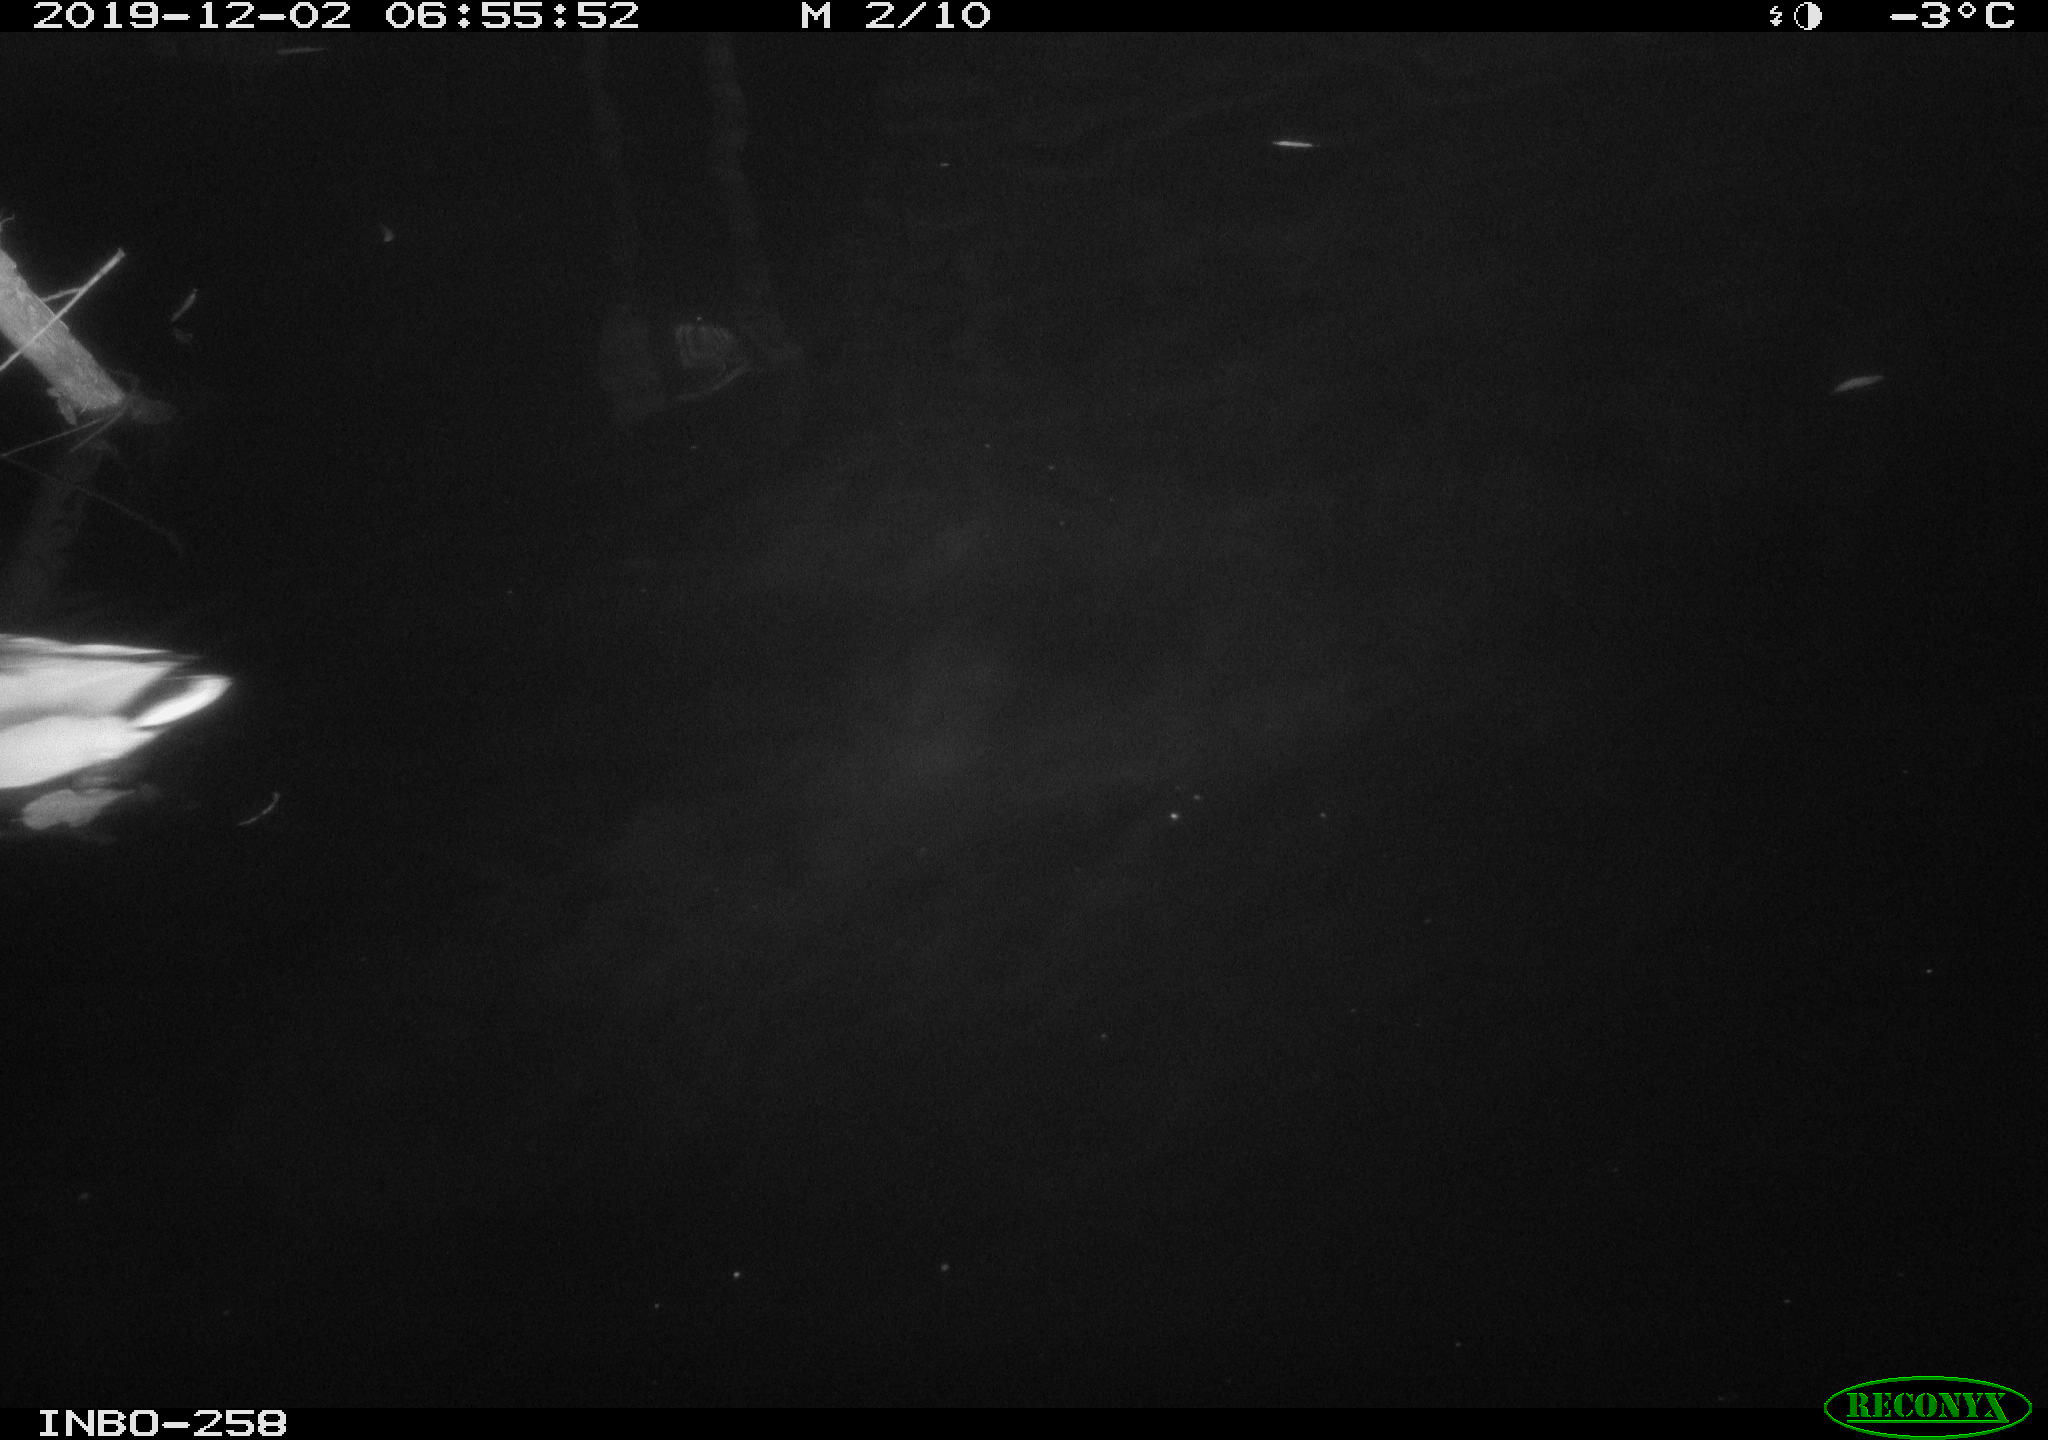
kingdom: Animalia
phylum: Chordata
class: Aves
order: Anseriformes
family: Anatidae
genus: Anas
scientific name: Anas platyrhynchos
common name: Mallard
